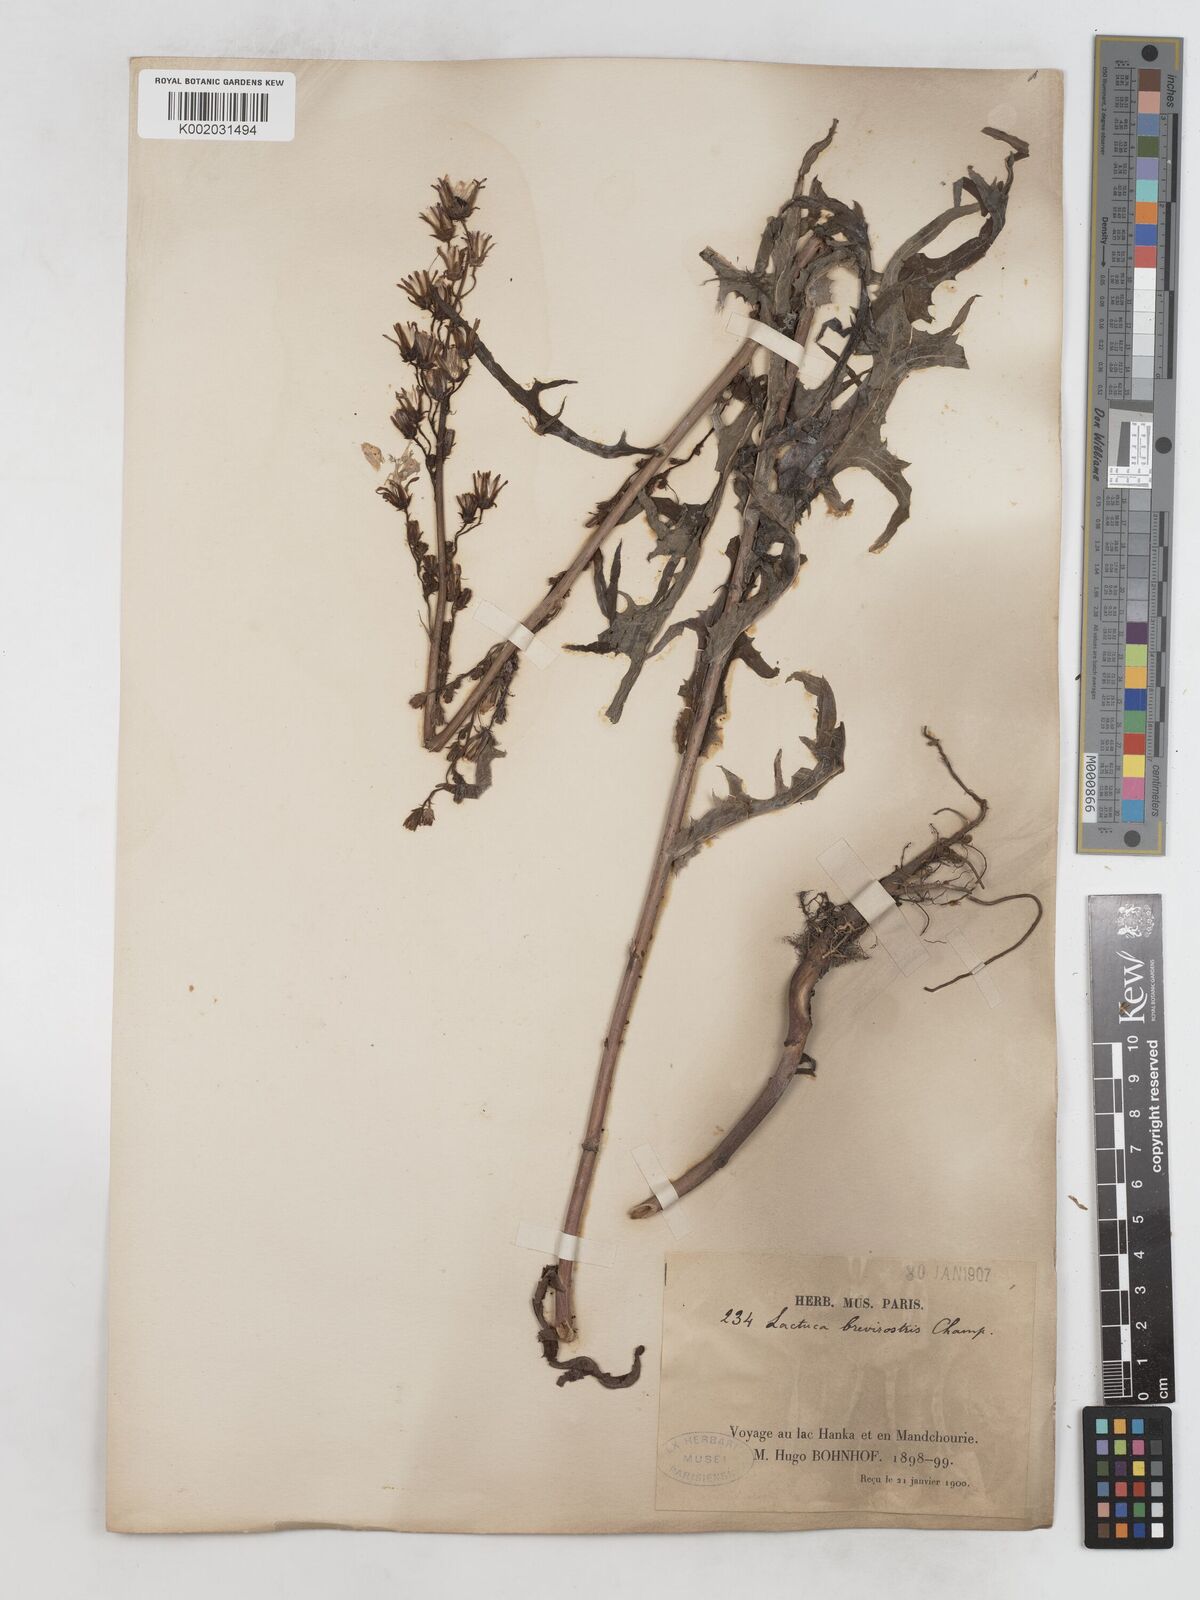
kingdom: Plantae
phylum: Tracheophyta
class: Magnoliopsida
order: Asterales
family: Asteraceae
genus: Lactuca
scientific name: Lactuca
